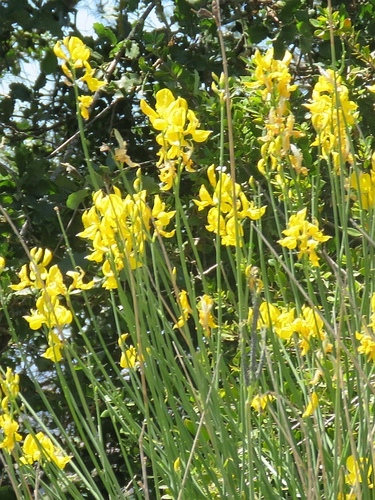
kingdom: Plantae
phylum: Tracheophyta
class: Magnoliopsida
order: Fabales
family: Fabaceae
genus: Cytisus
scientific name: Cytisus grandiflorus
